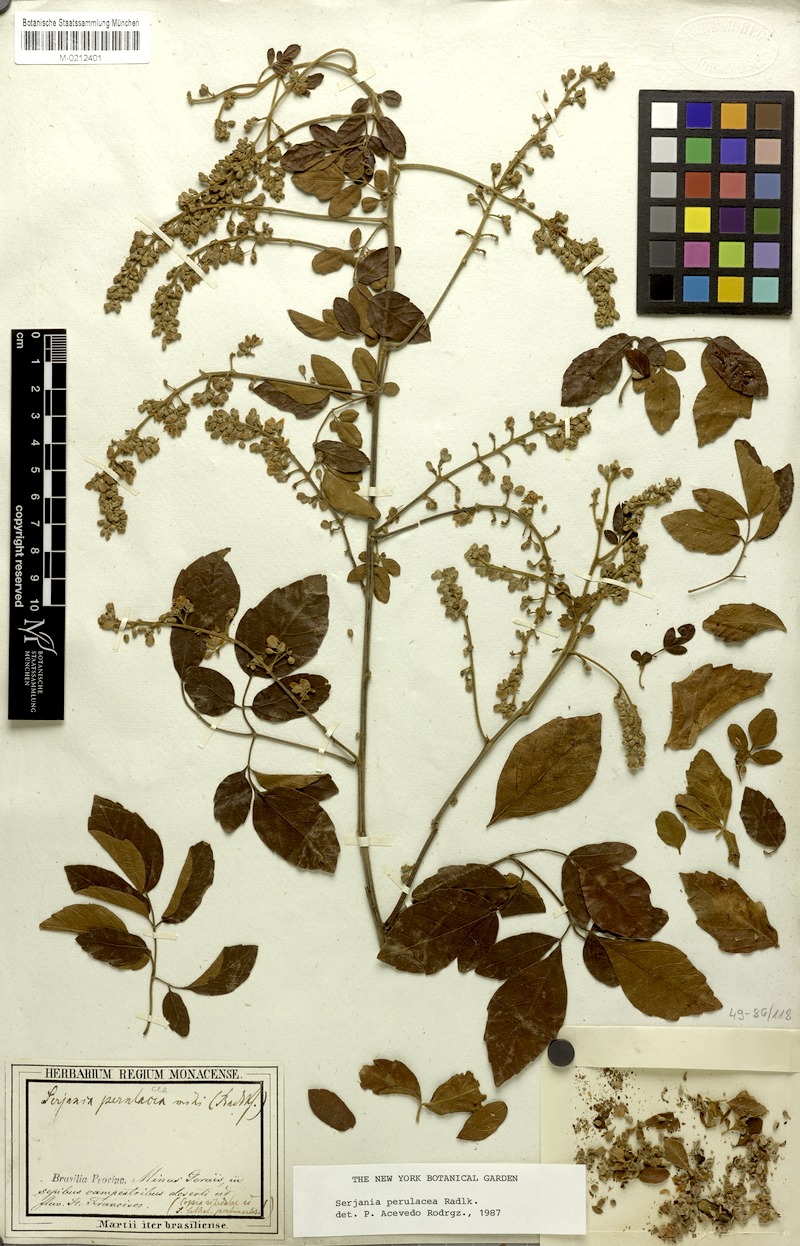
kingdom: Plantae
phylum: Tracheophyta
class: Magnoliopsida
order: Sapindales
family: Sapindaceae
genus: Serjania
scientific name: Serjania perulacea
